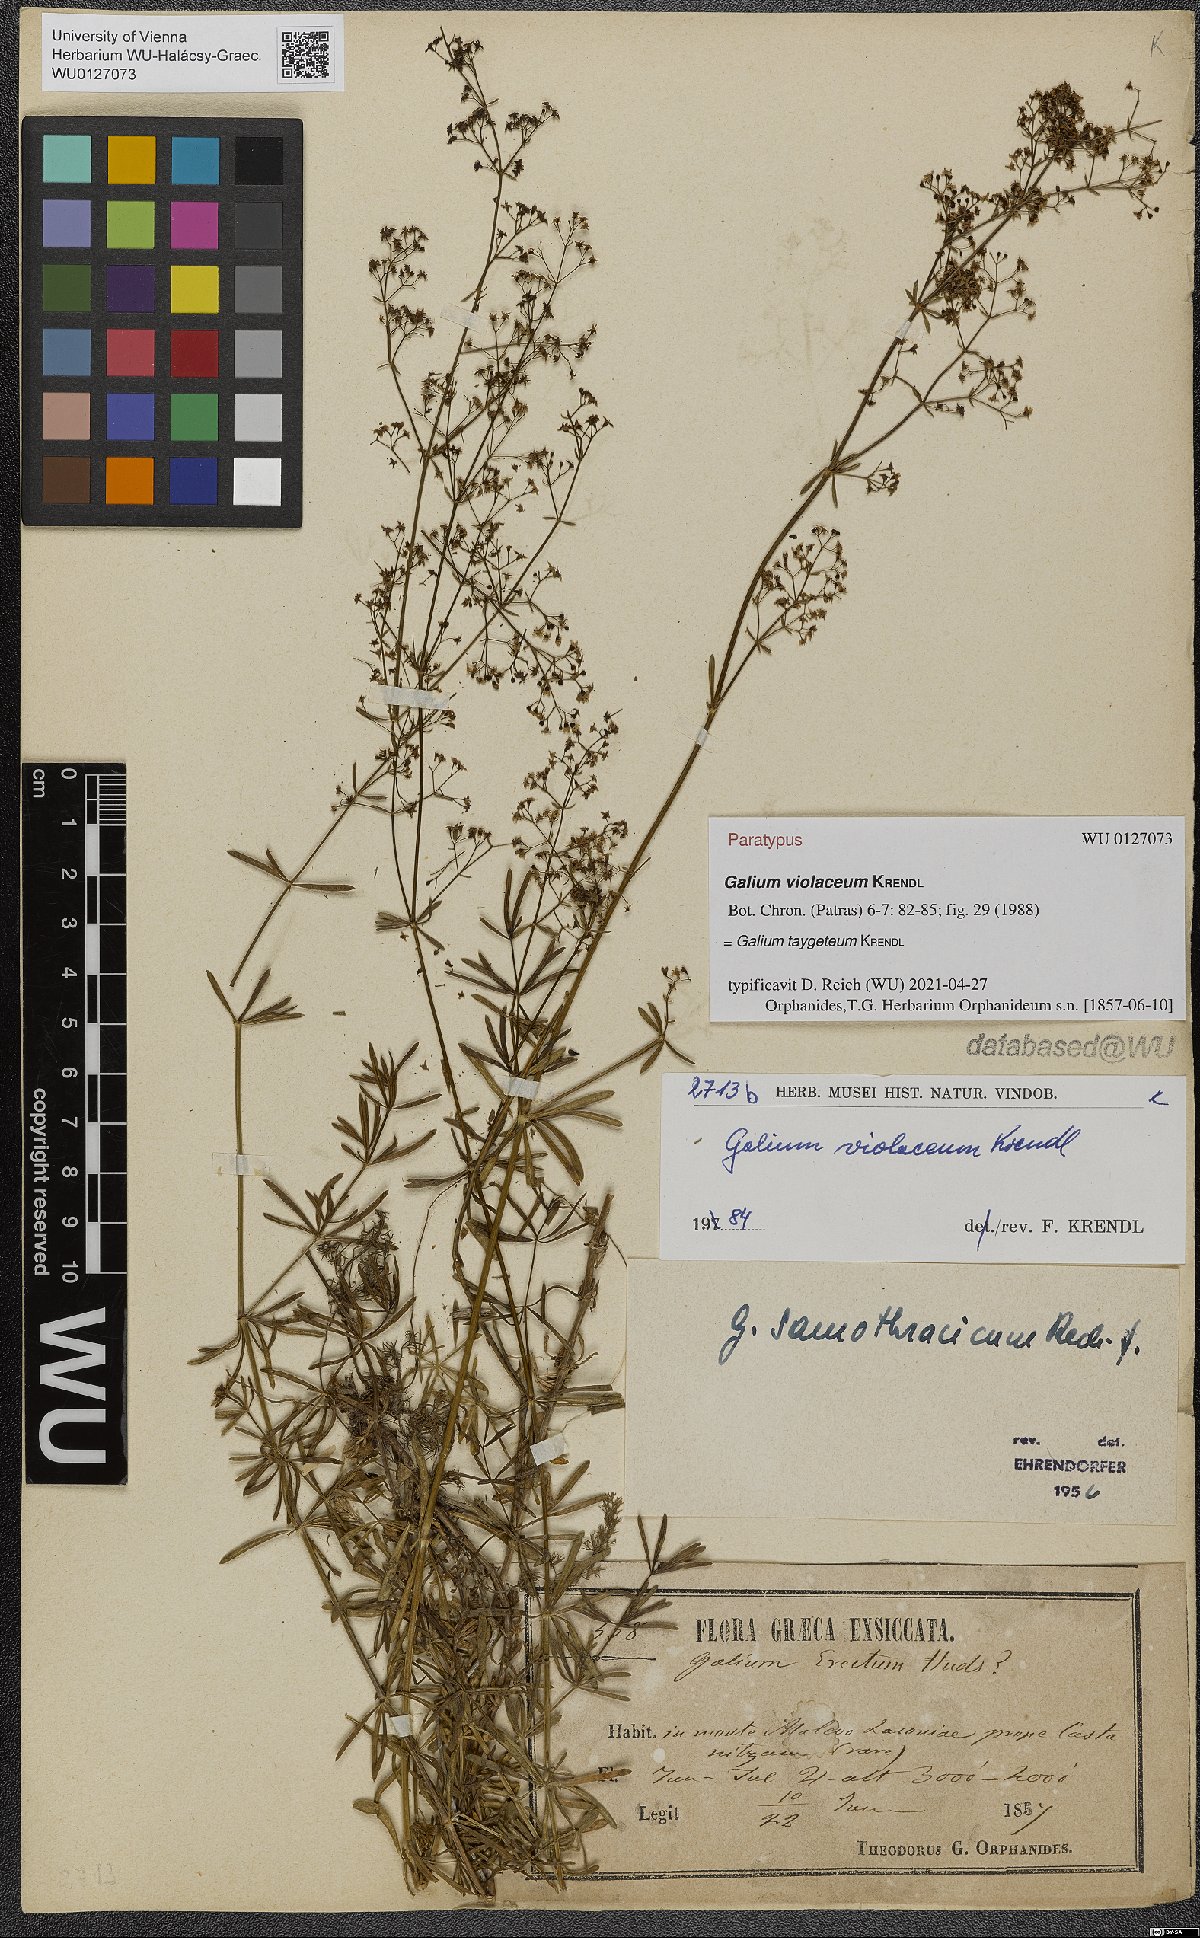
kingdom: Plantae
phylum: Tracheophyta
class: Magnoliopsida
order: Gentianales
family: Rubiaceae
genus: Galium
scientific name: Galium taygeteum
